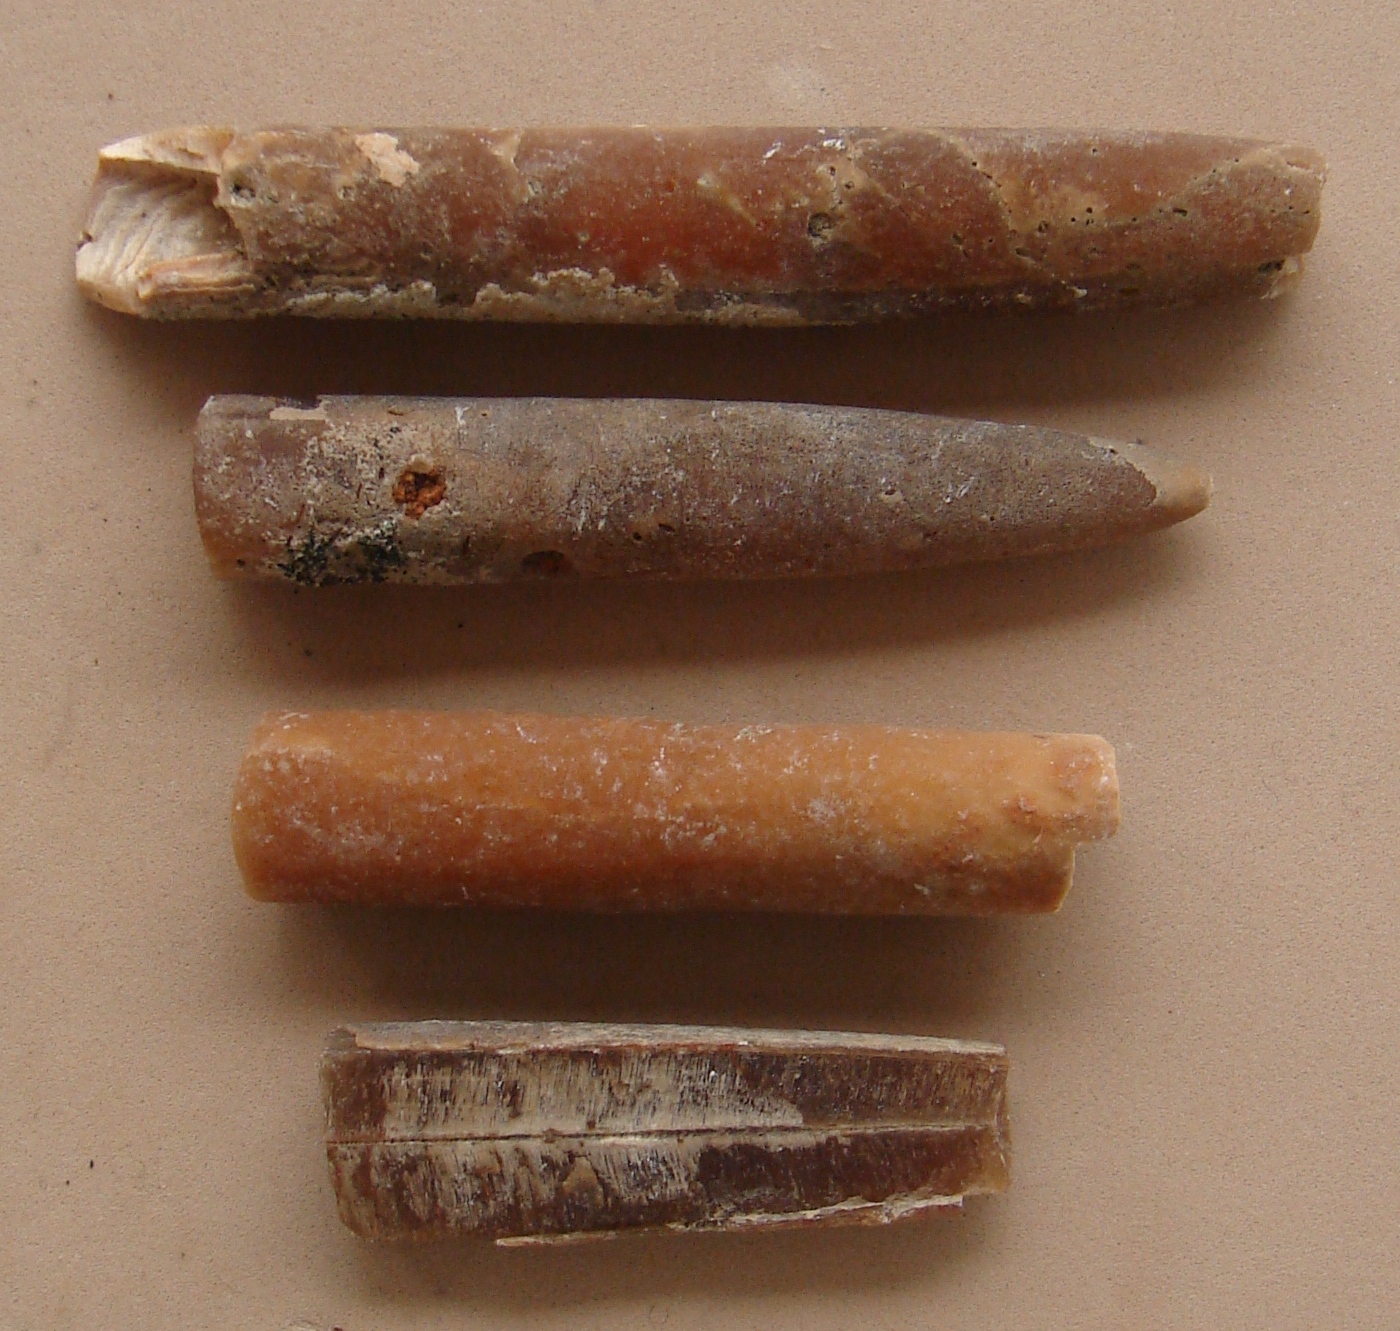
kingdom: Animalia
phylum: Mollusca
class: Cephalopoda
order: Belemnitida
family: Bellemnitellidae
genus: Belemnitella
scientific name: Belemnitella
